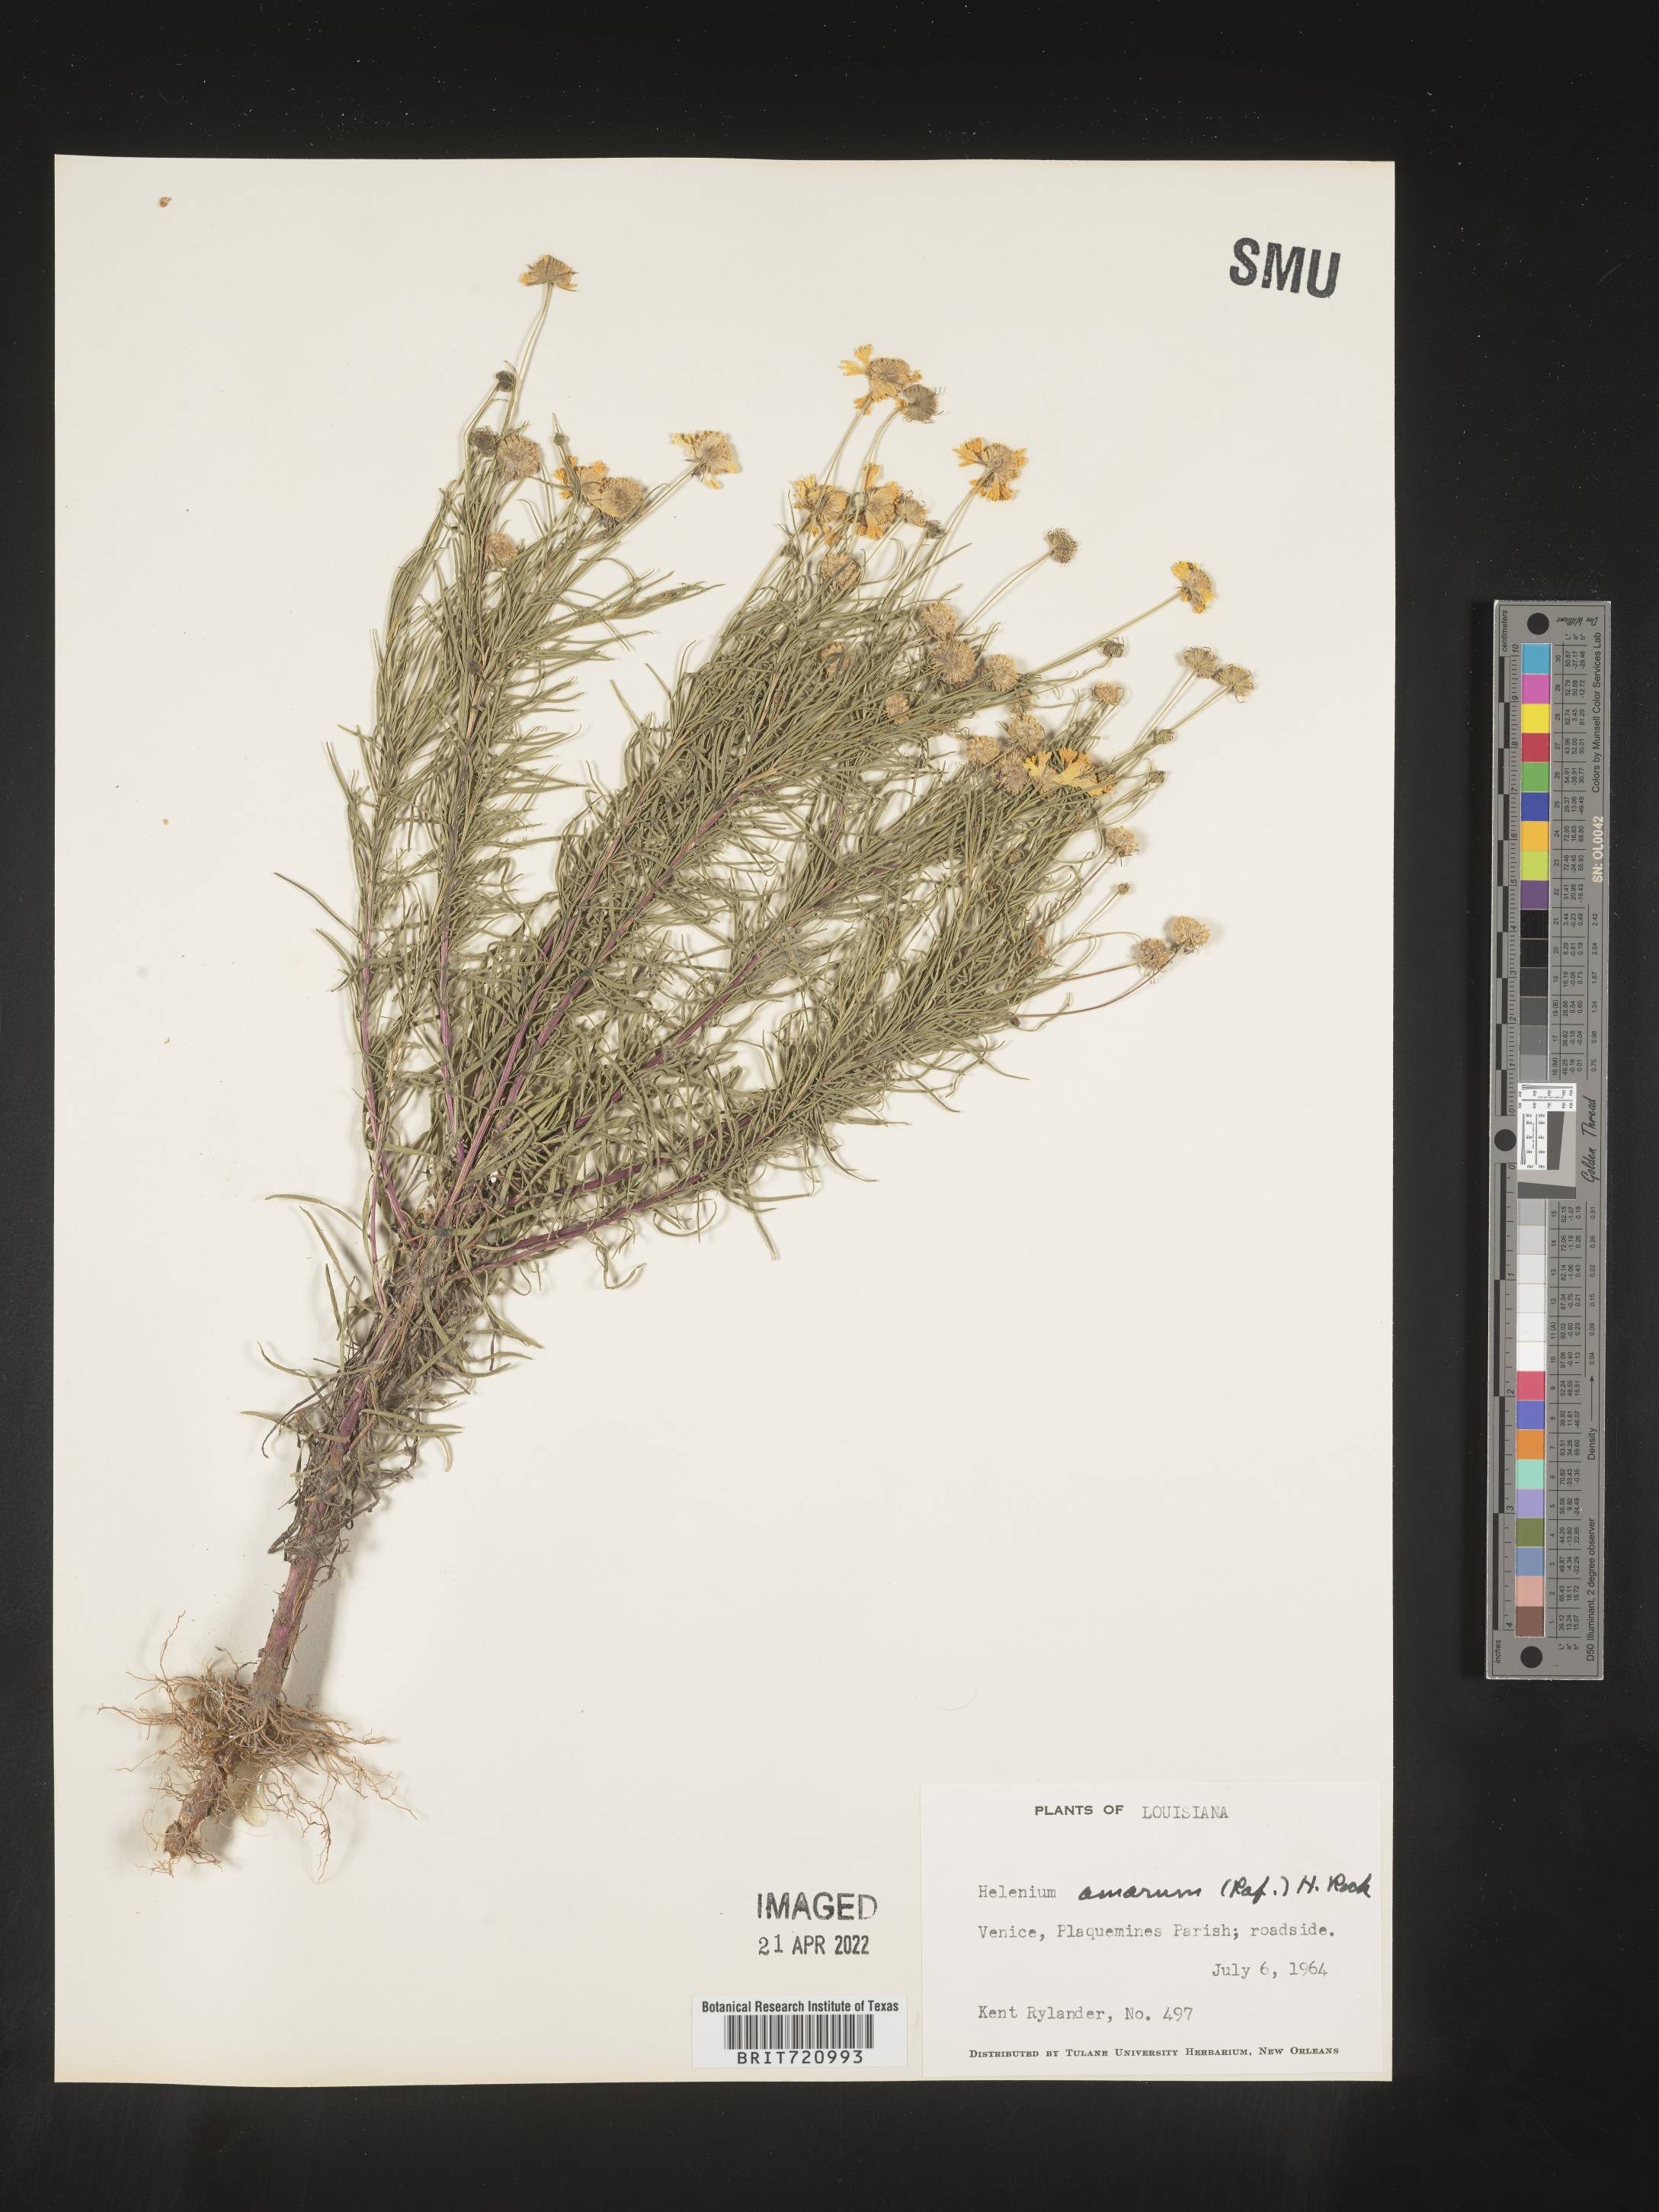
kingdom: Plantae
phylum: Tracheophyta
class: Magnoliopsida
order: Asterales
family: Asteraceae
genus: Helenium
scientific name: Helenium amarum
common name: Bitter sneezeweed
